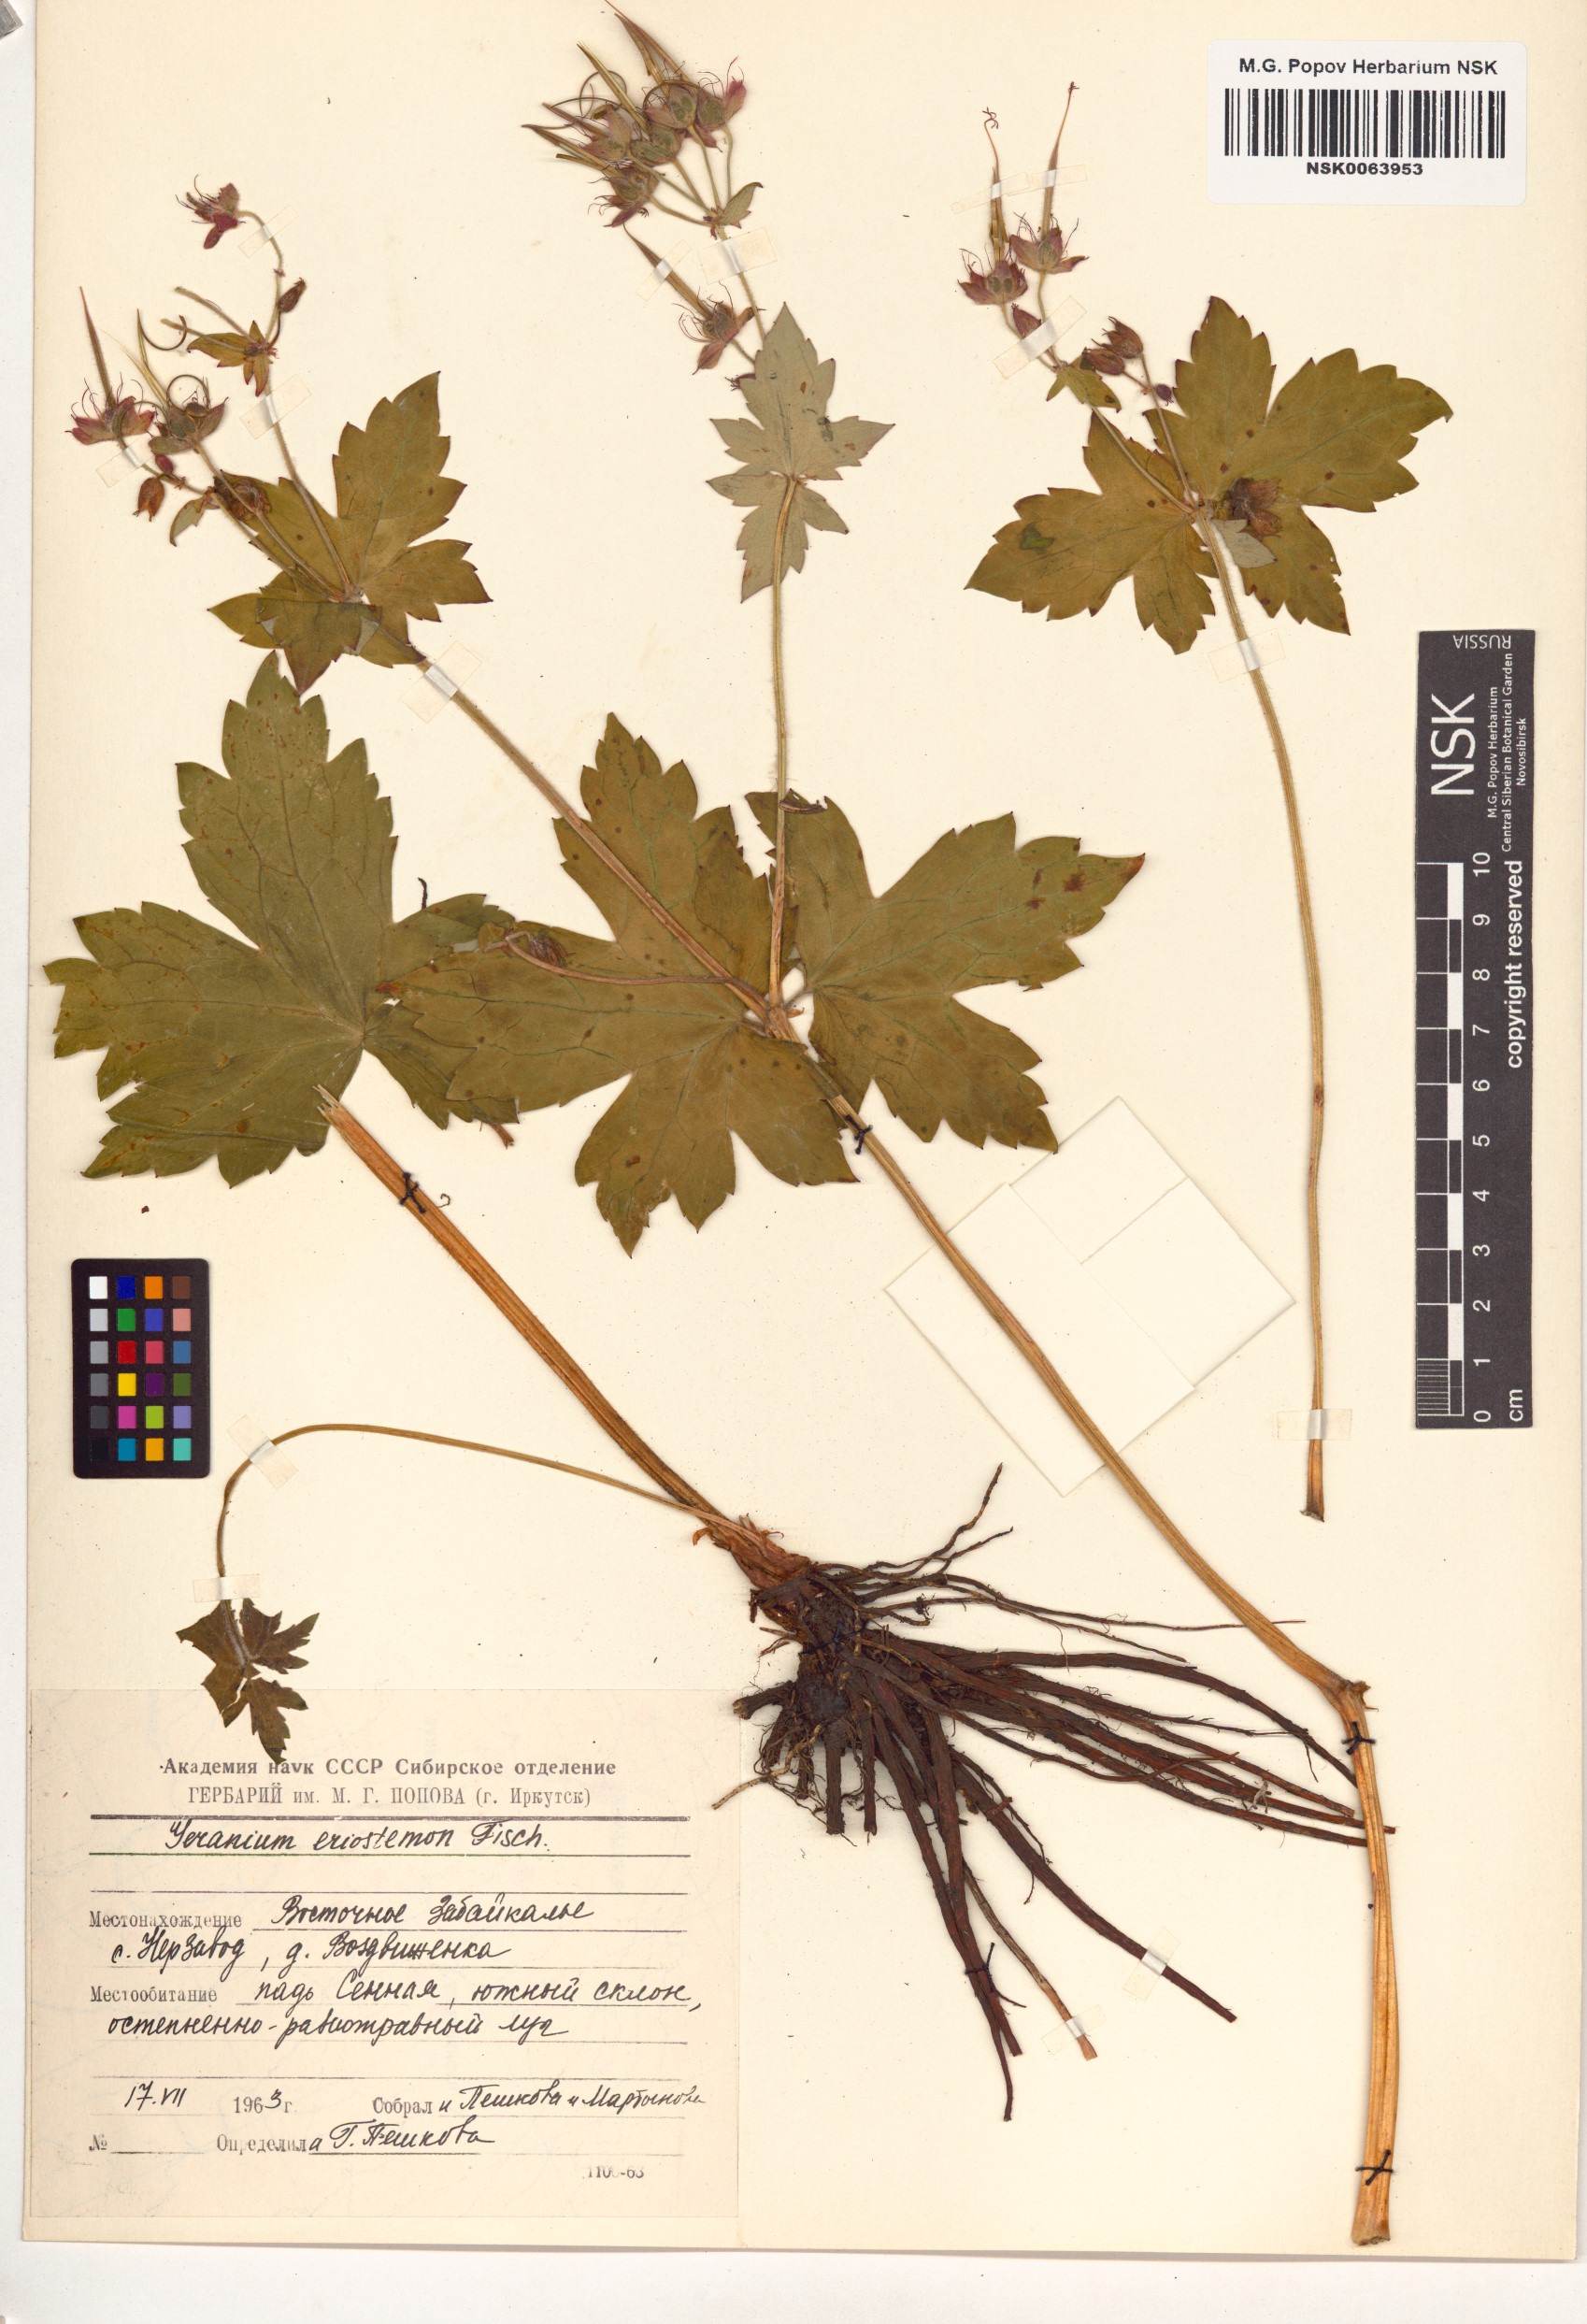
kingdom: Plantae
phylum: Tracheophyta
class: Magnoliopsida
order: Geraniales
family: Geraniaceae
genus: Geranium
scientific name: Geranium platyanthum
